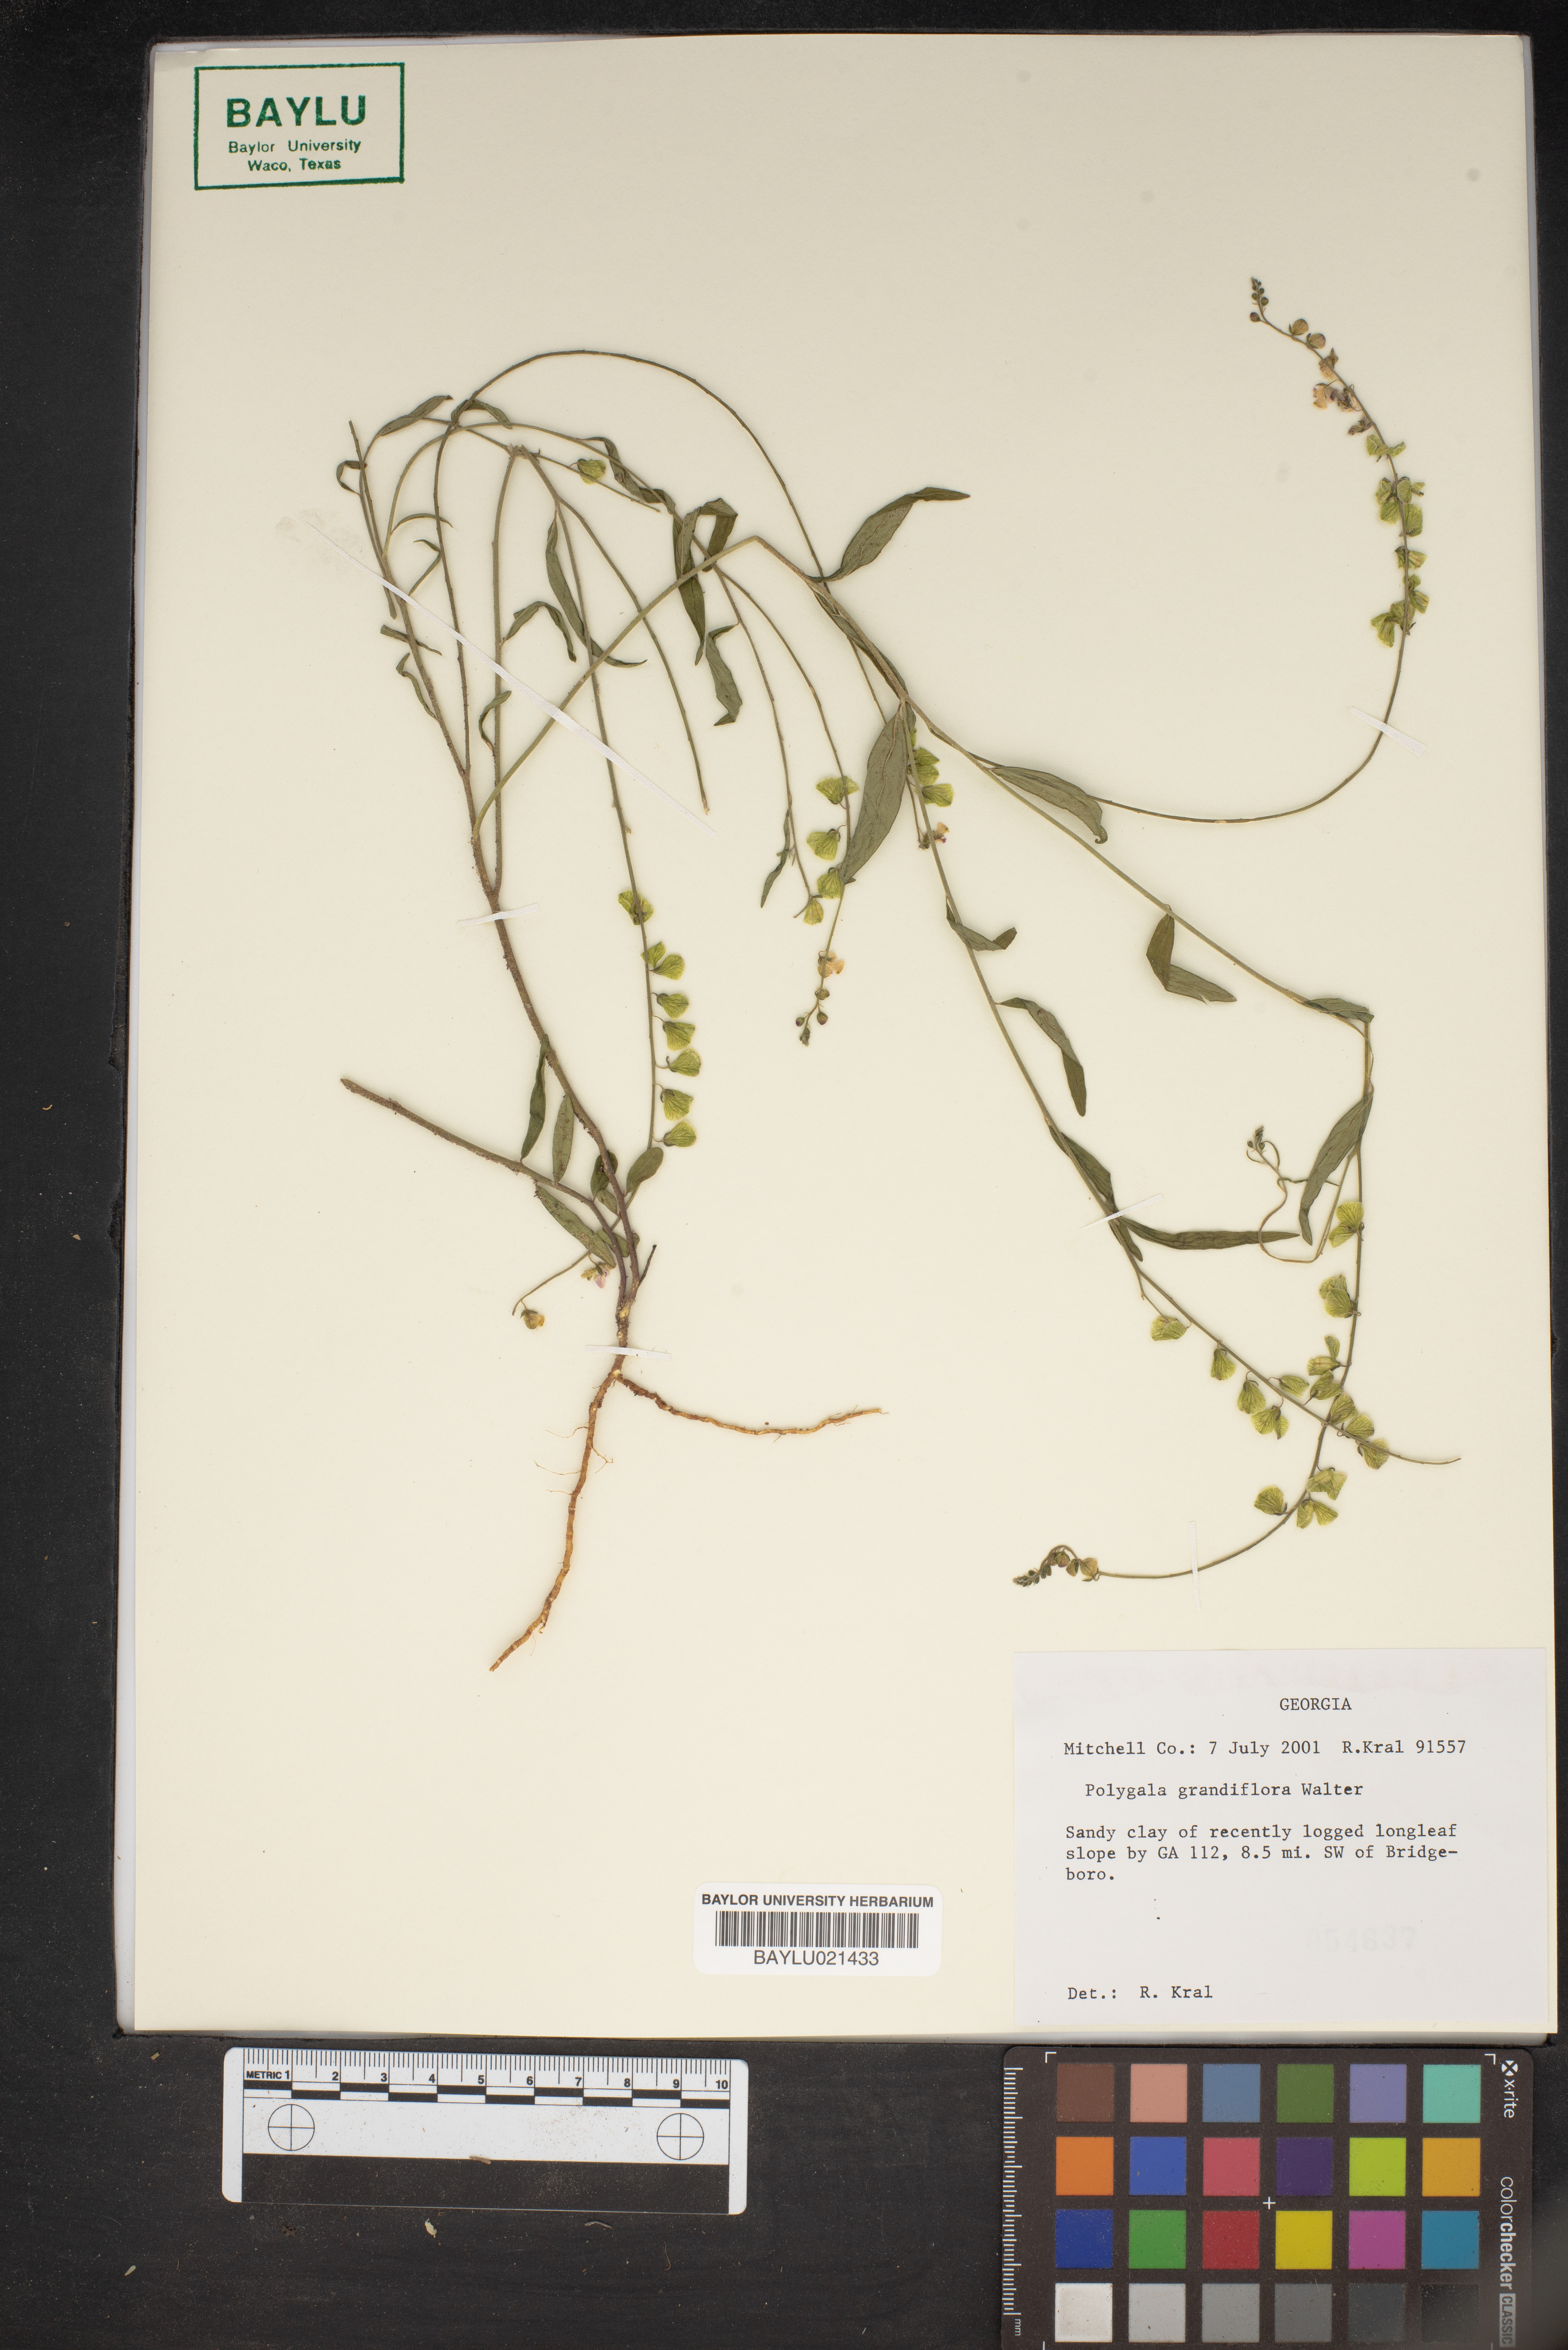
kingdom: Plantae
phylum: Tracheophyta
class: Magnoliopsida
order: Fabales
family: Polygalaceae
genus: Asemeia
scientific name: Asemeia grandiflora
